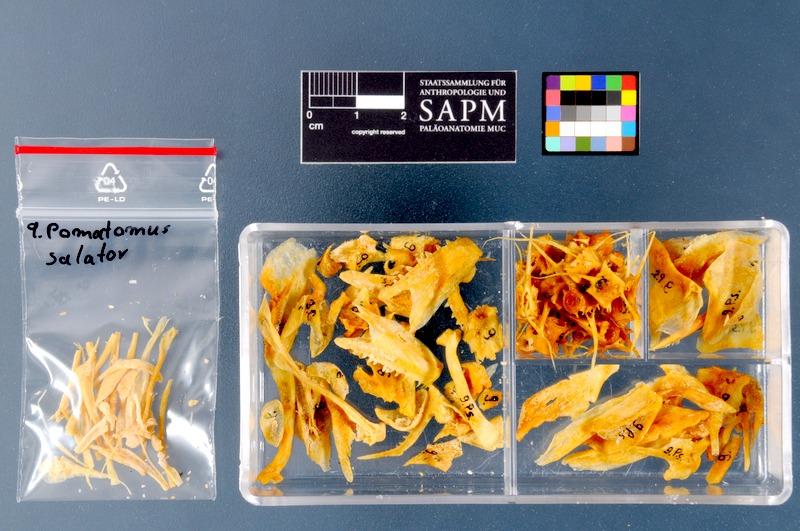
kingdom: Animalia
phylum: Chordata
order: Perciformes
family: Pomatomidae
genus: Pomatomus
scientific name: Pomatomus saltatrix
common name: Bluefish
